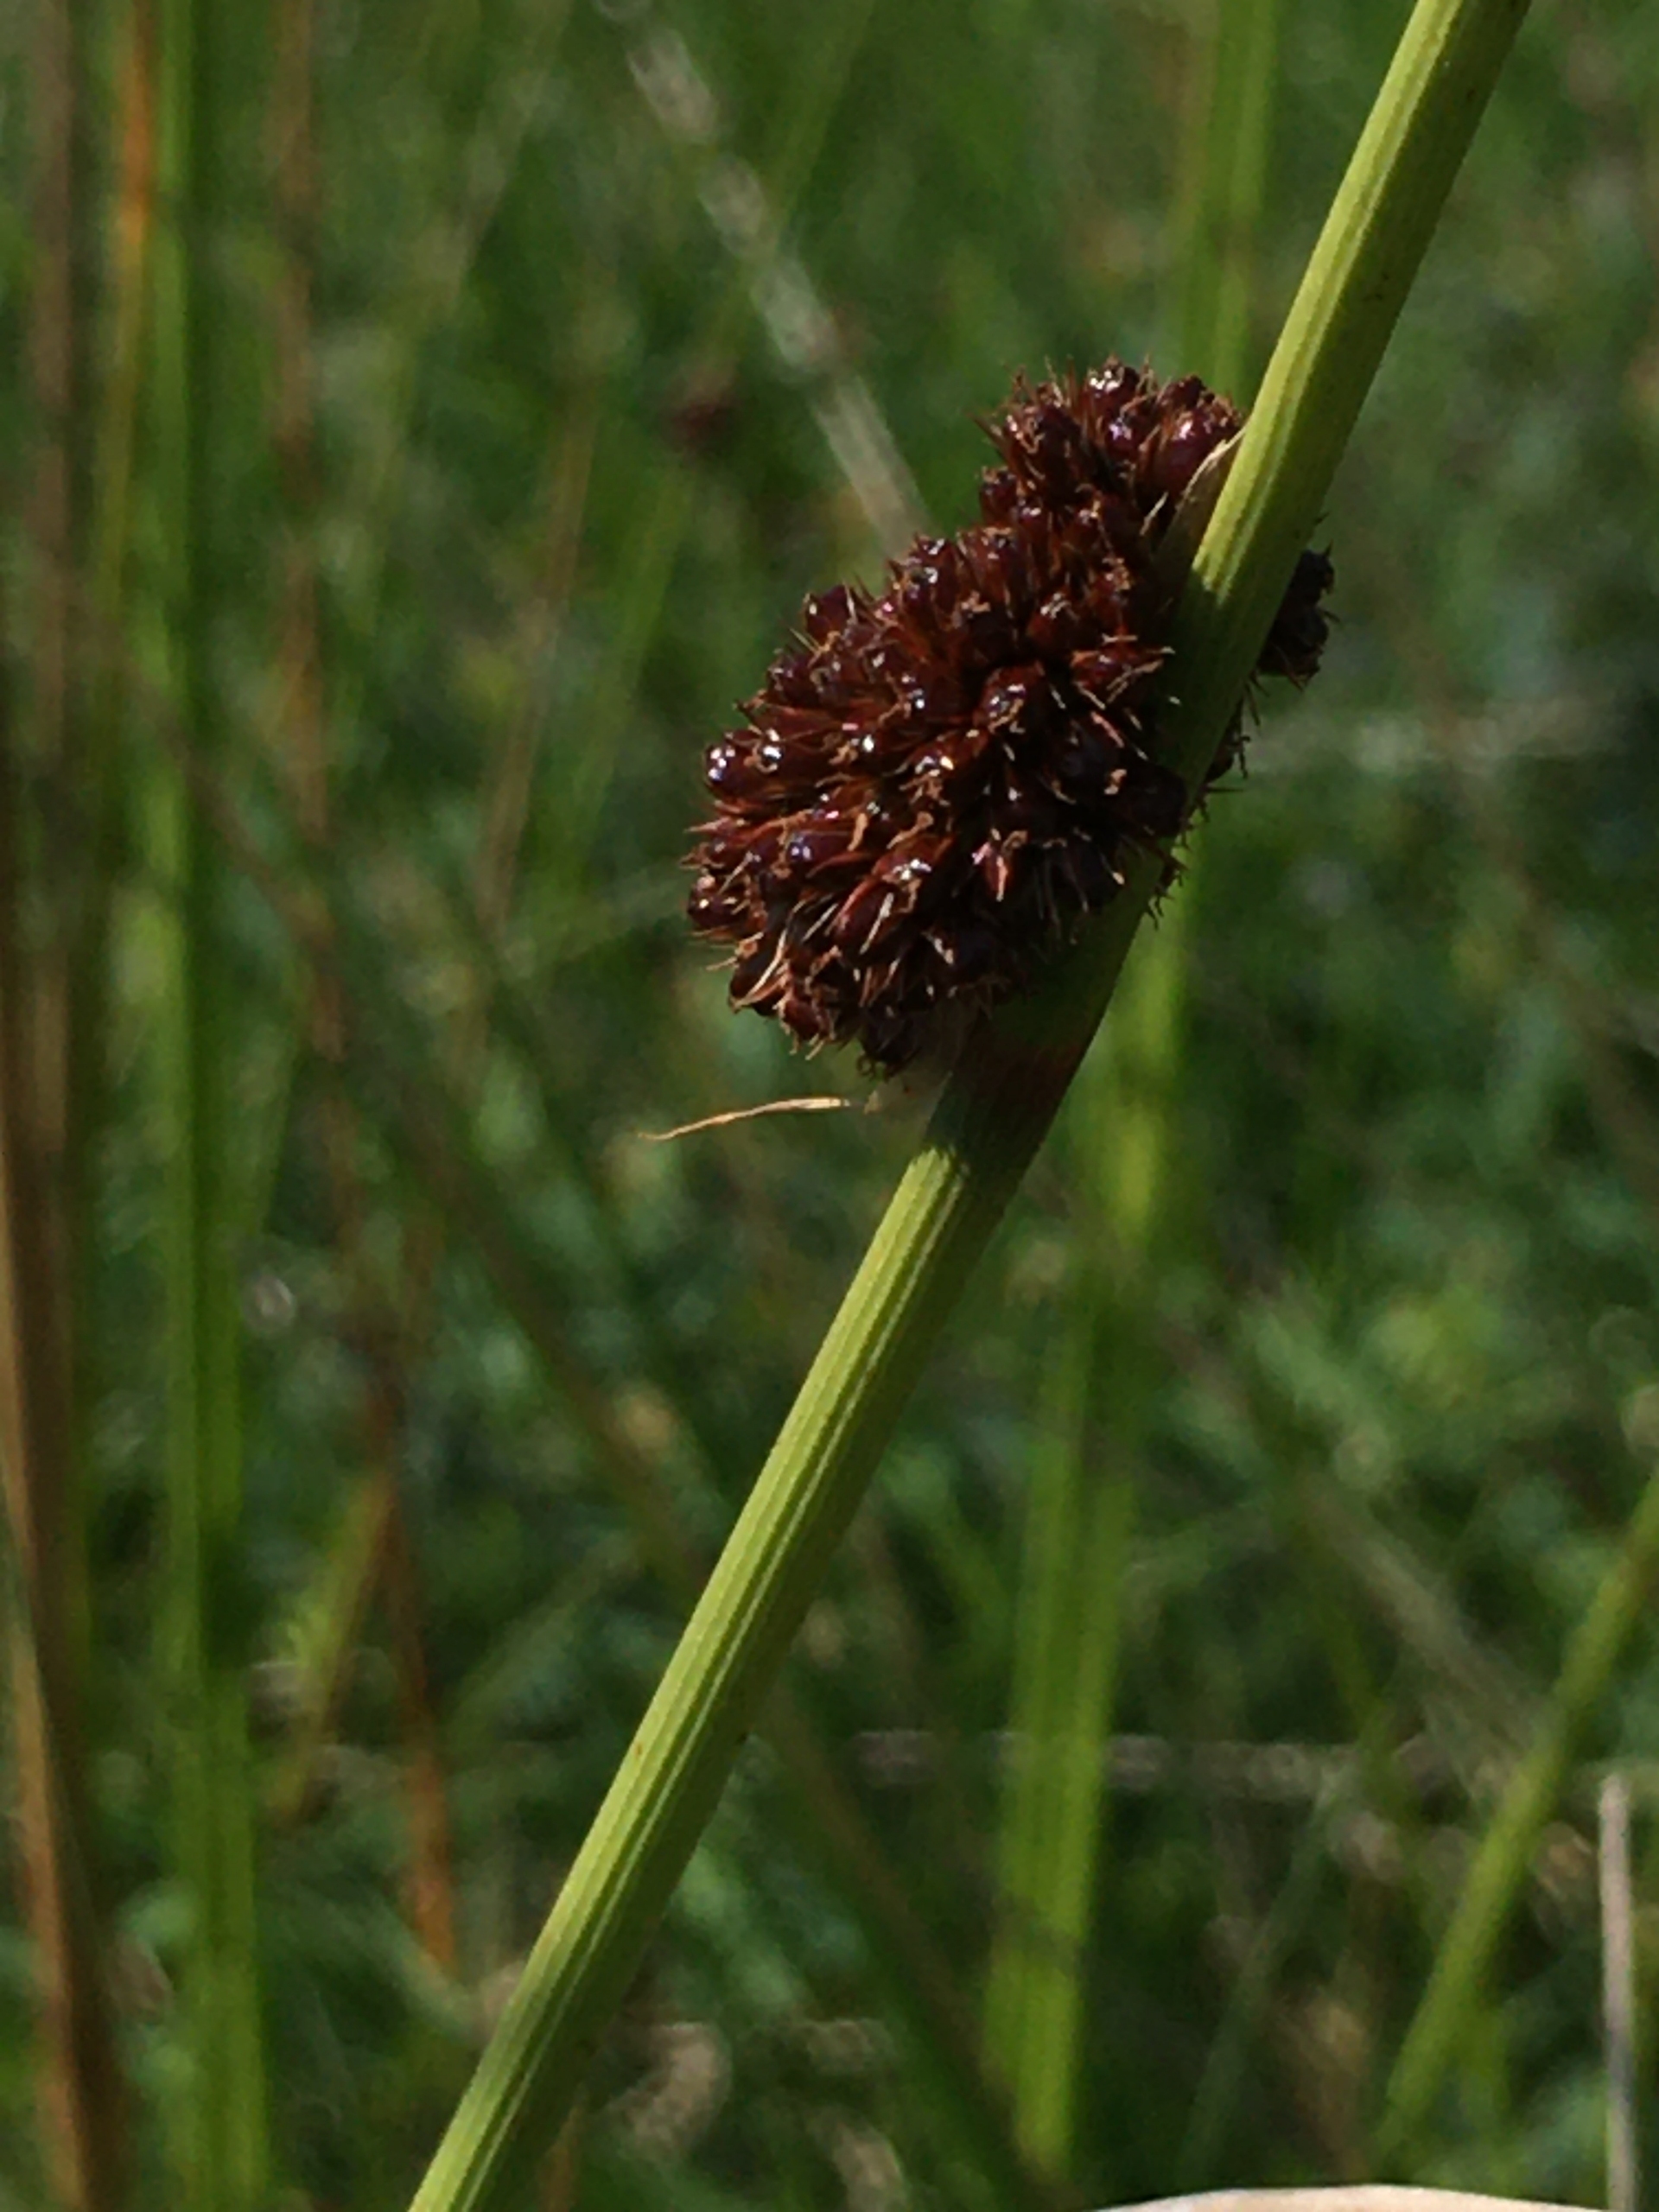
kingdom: Plantae
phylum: Tracheophyta
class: Liliopsida
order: Poales
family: Juncaceae
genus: Juncus
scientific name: Juncus conglomeratus
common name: Knop-siv
